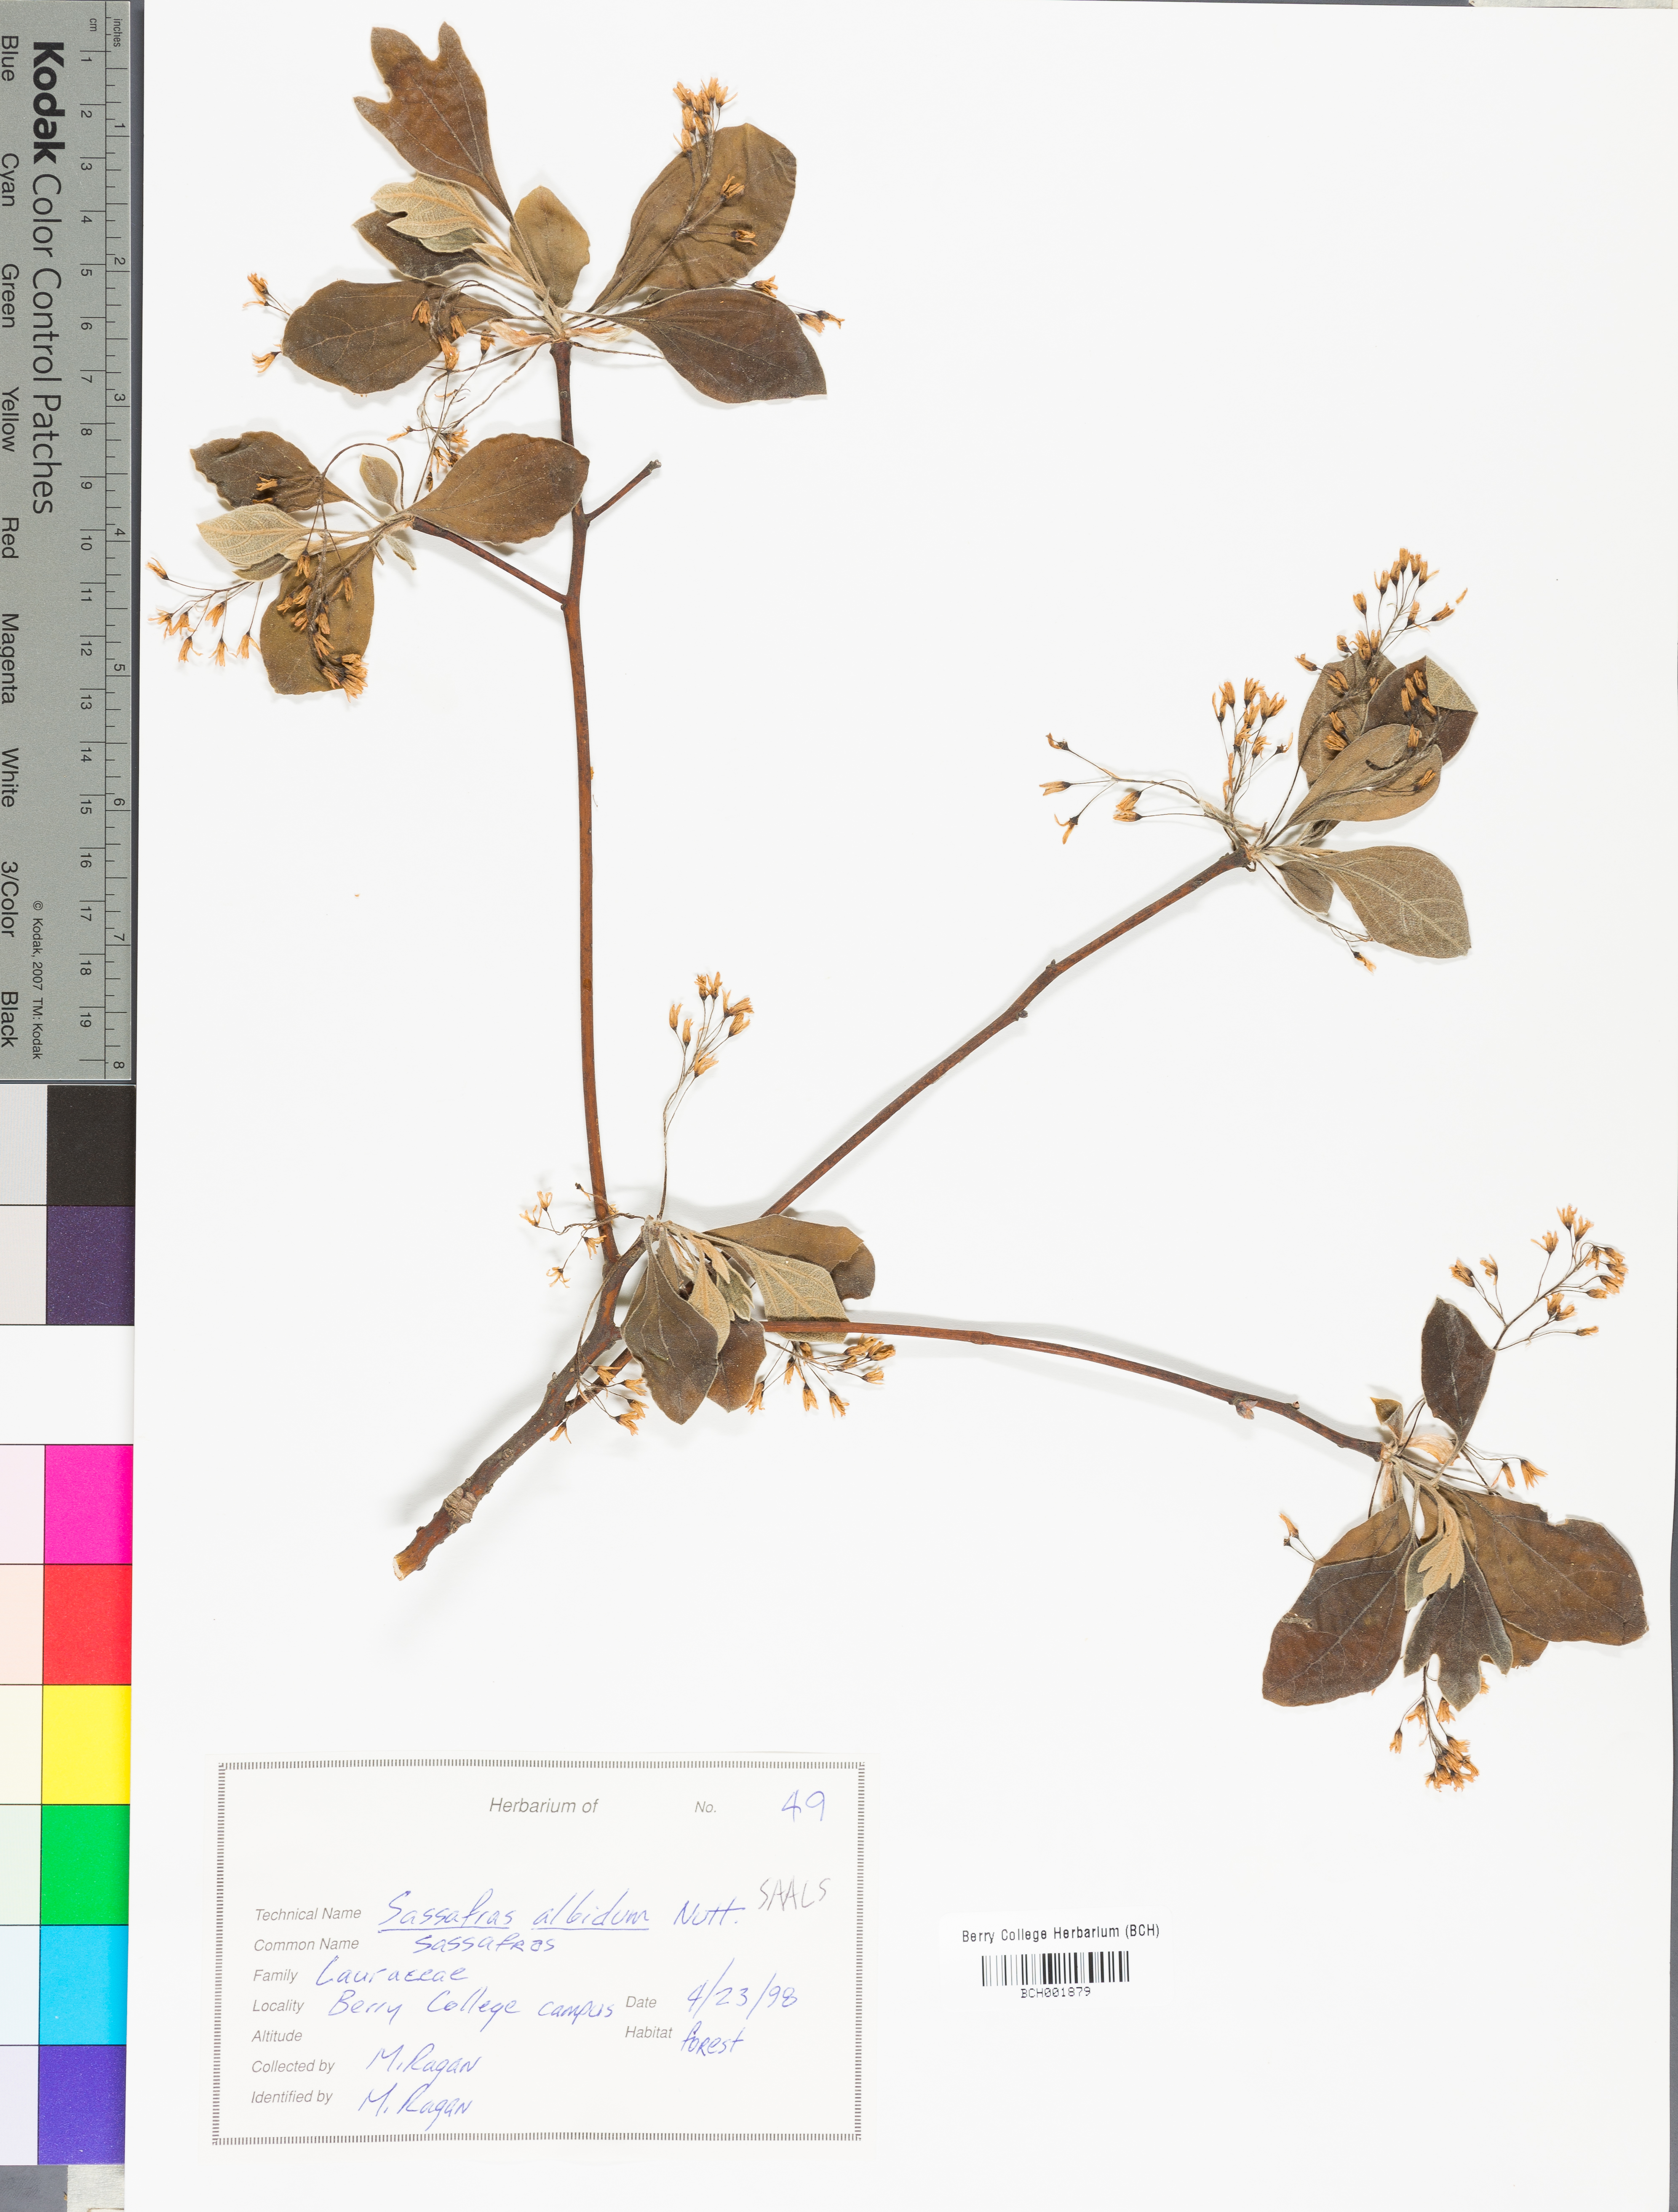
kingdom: Plantae
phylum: Tracheophyta
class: Magnoliopsida
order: Laurales
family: Lauraceae
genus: Sassafras
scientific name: Sassafras albidum
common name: Sassafras
